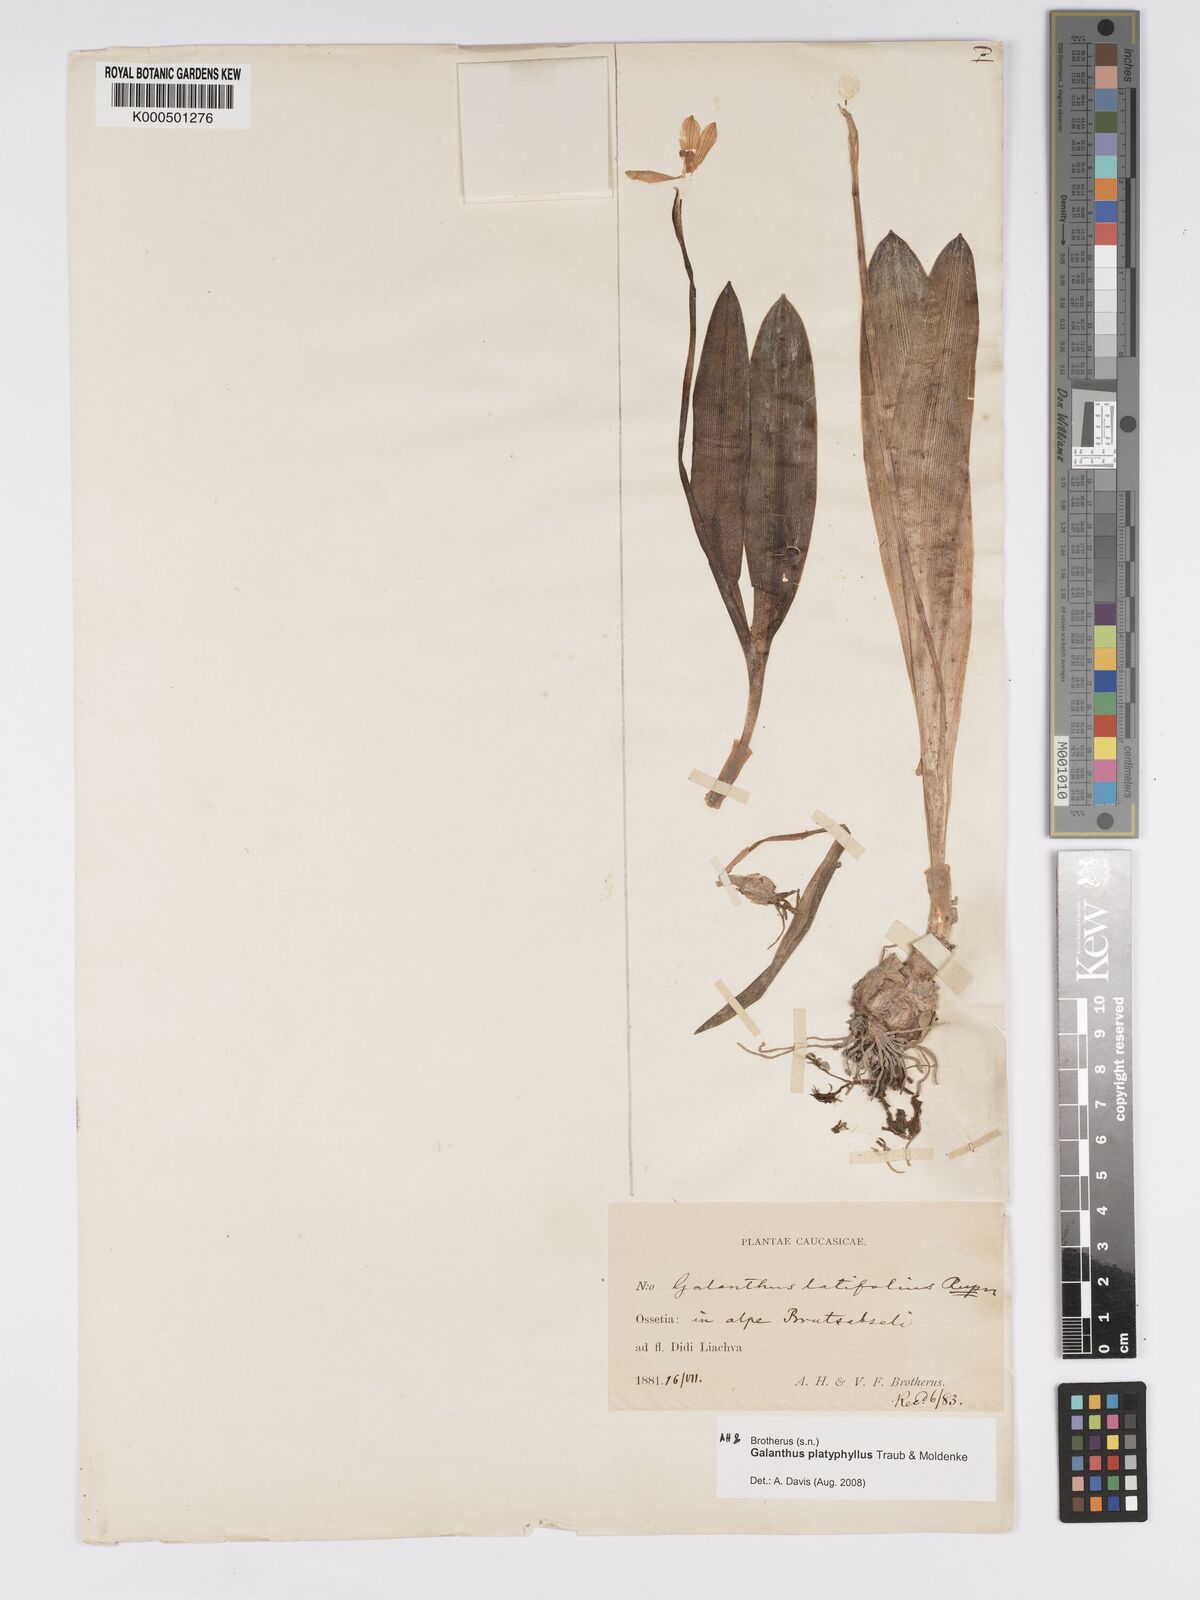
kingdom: Plantae
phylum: Tracheophyta
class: Liliopsida
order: Asparagales
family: Amaryllidaceae
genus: Galanthus
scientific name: Galanthus platyphyllus
